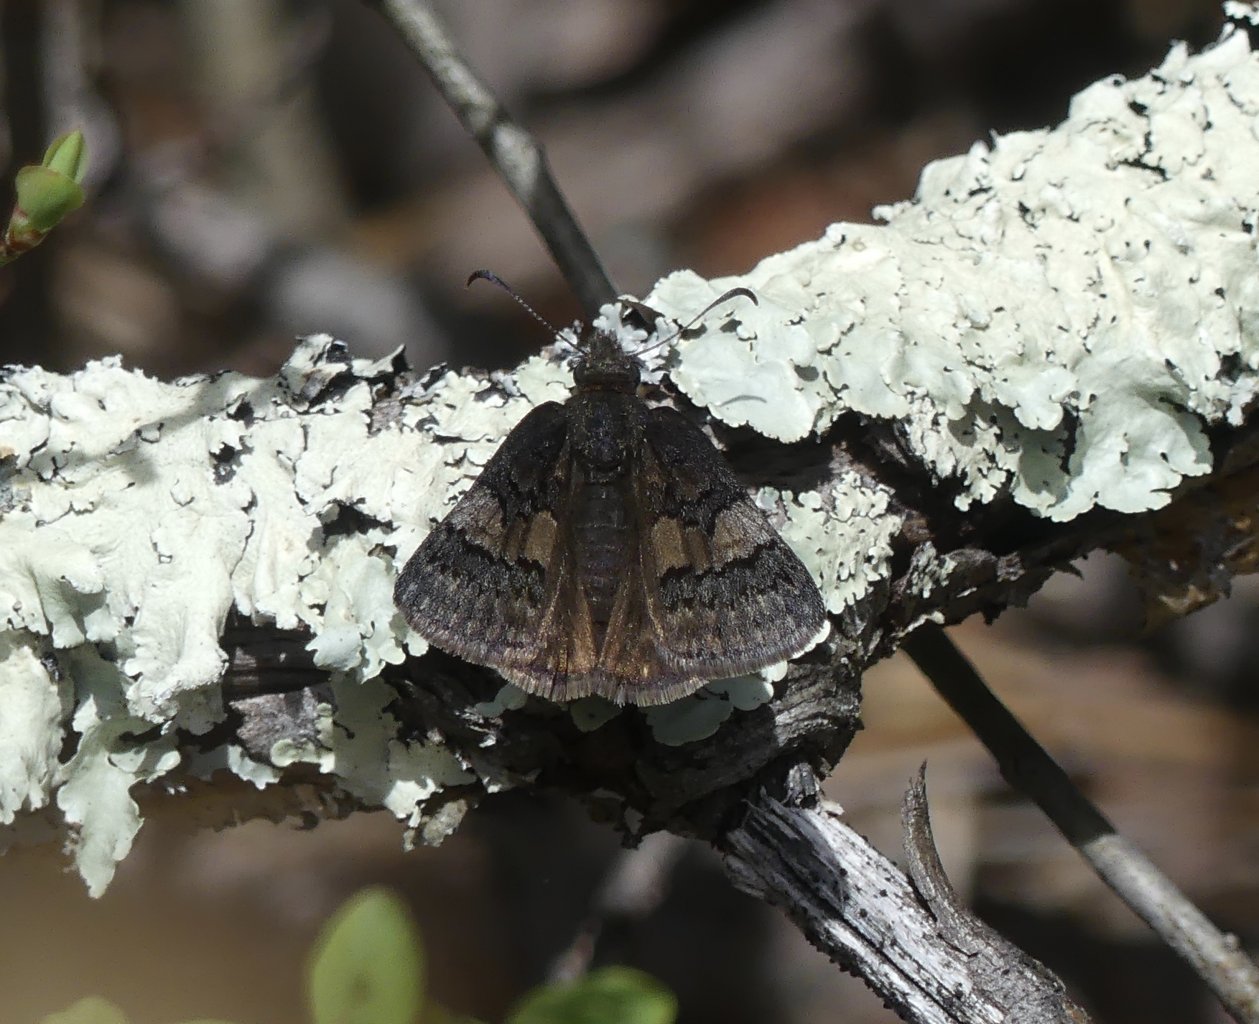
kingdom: Animalia
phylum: Arthropoda
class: Insecta
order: Lepidoptera
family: Hesperiidae
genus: Erynnis
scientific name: Erynnis brizo
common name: Sleepy Duskywing
